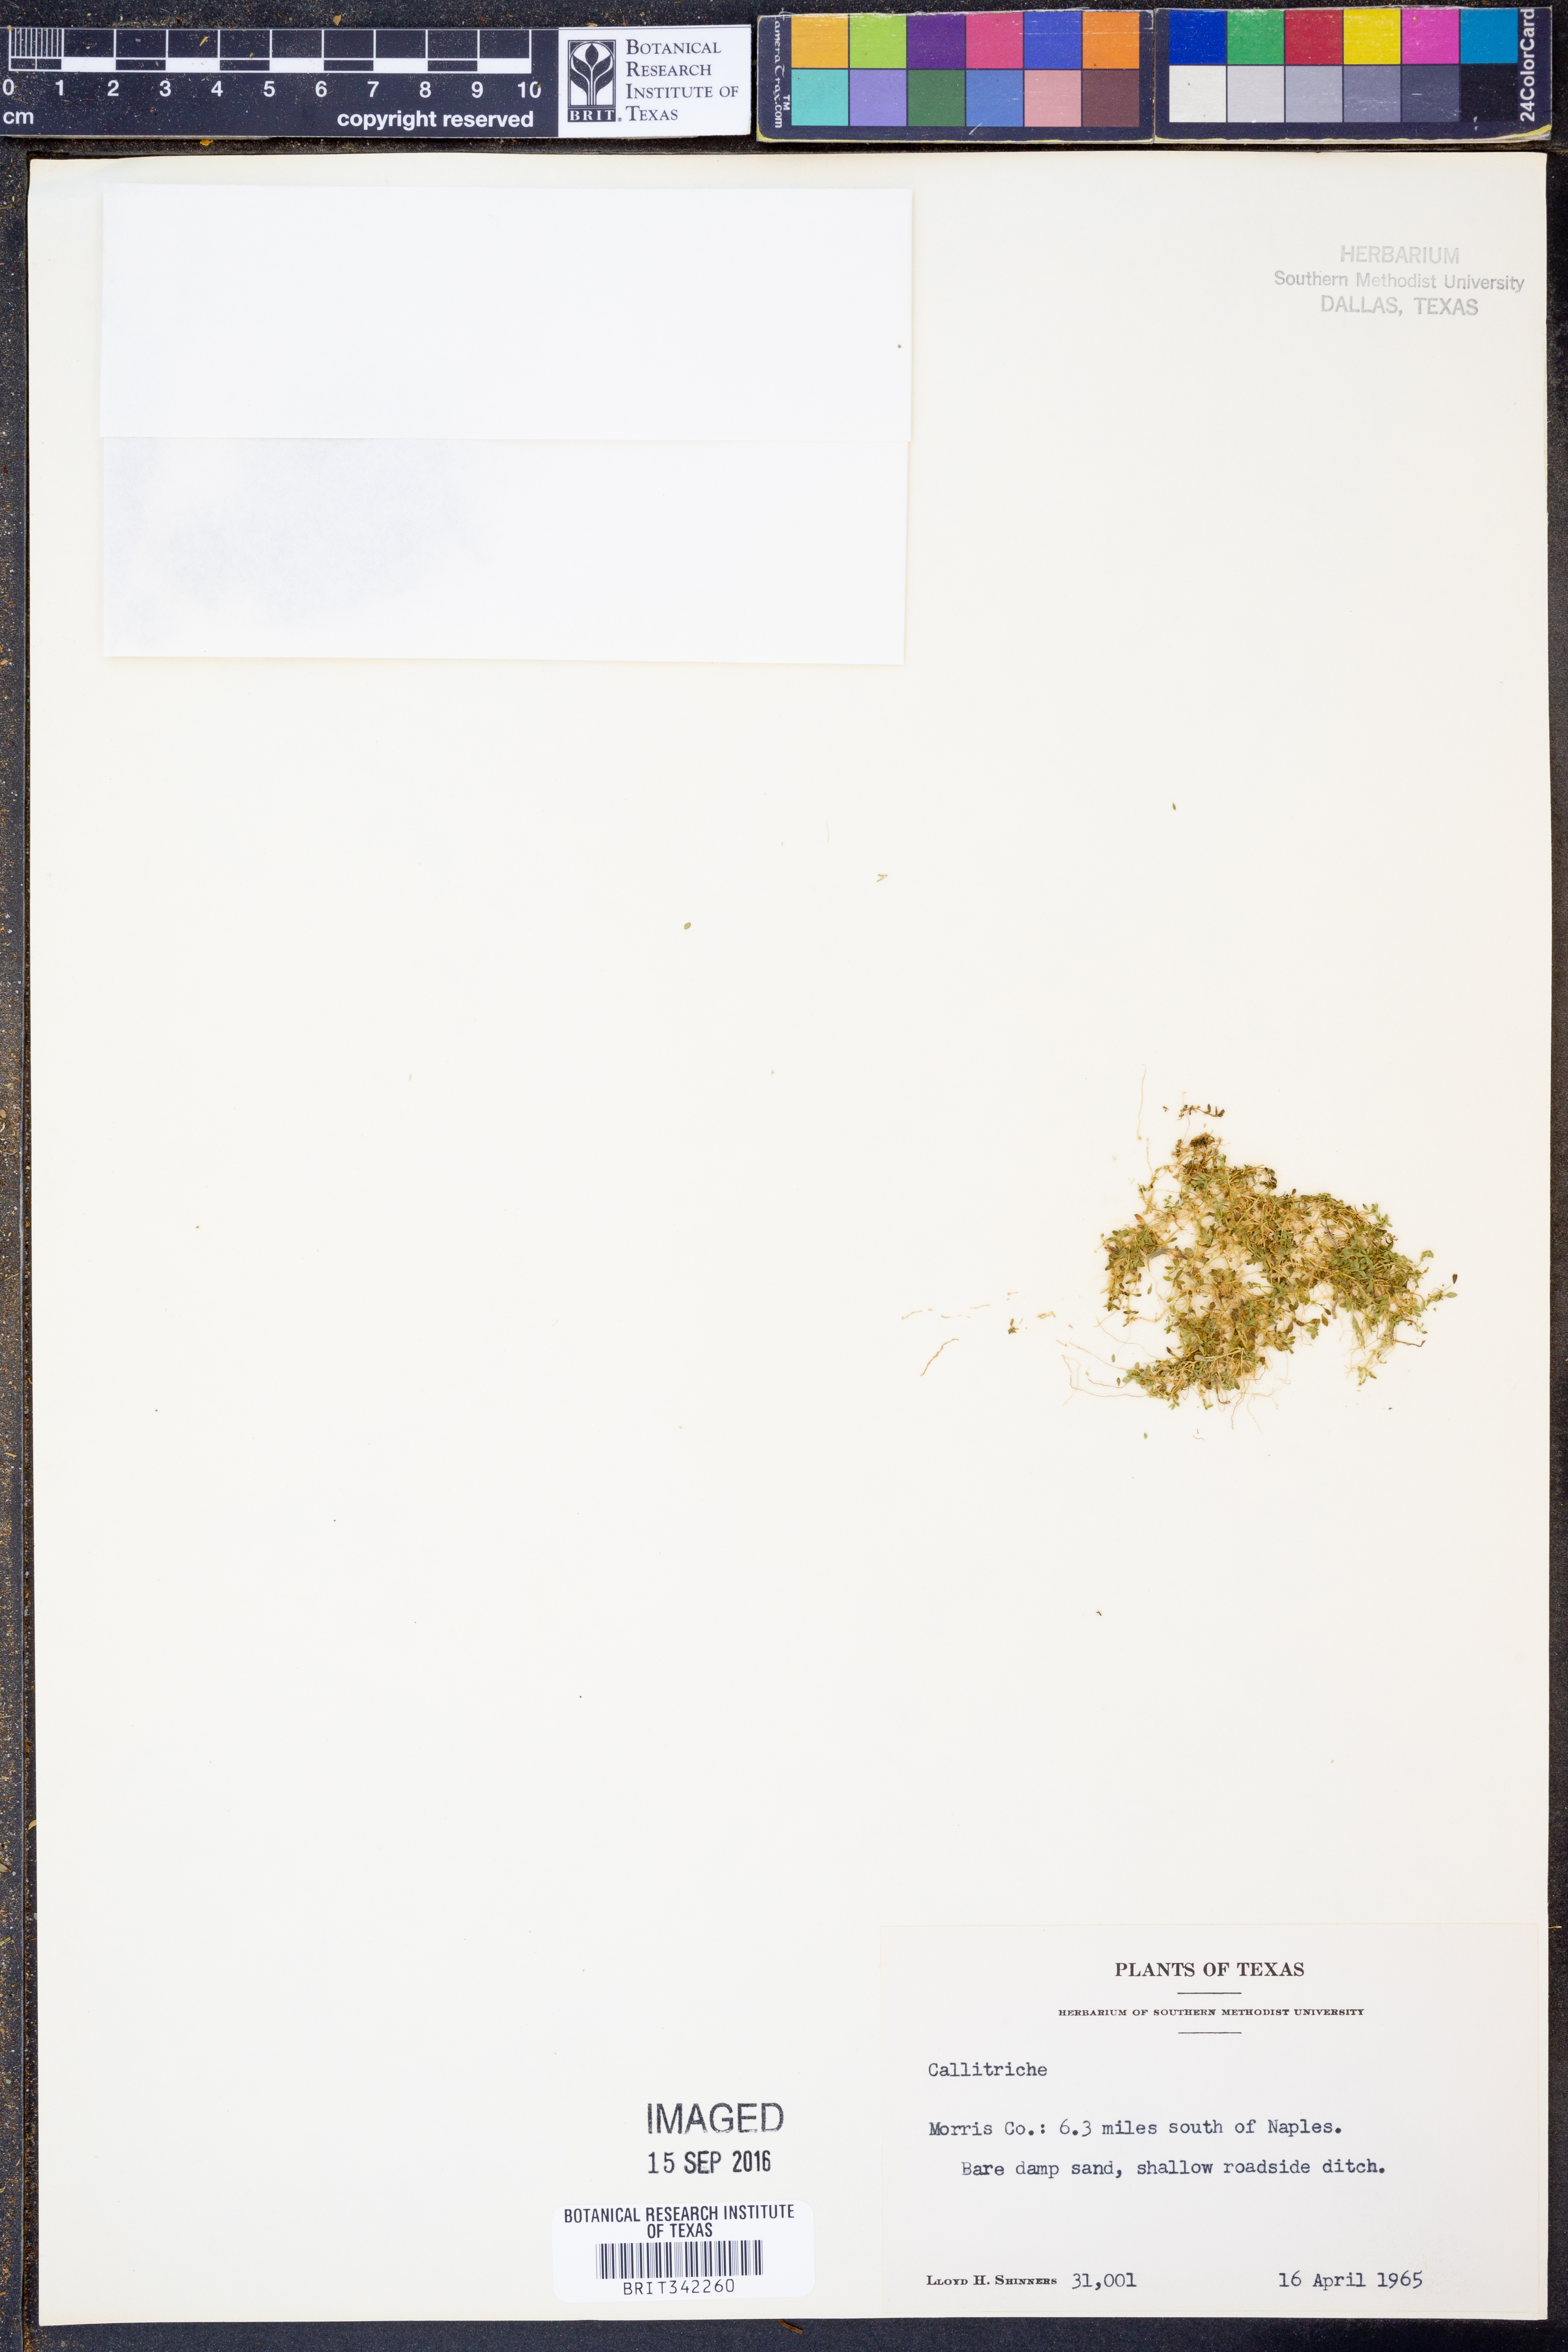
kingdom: Plantae
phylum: Tracheophyta
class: Magnoliopsida
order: Lamiales
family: Plantaginaceae
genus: Callitriche
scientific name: Callitriche
